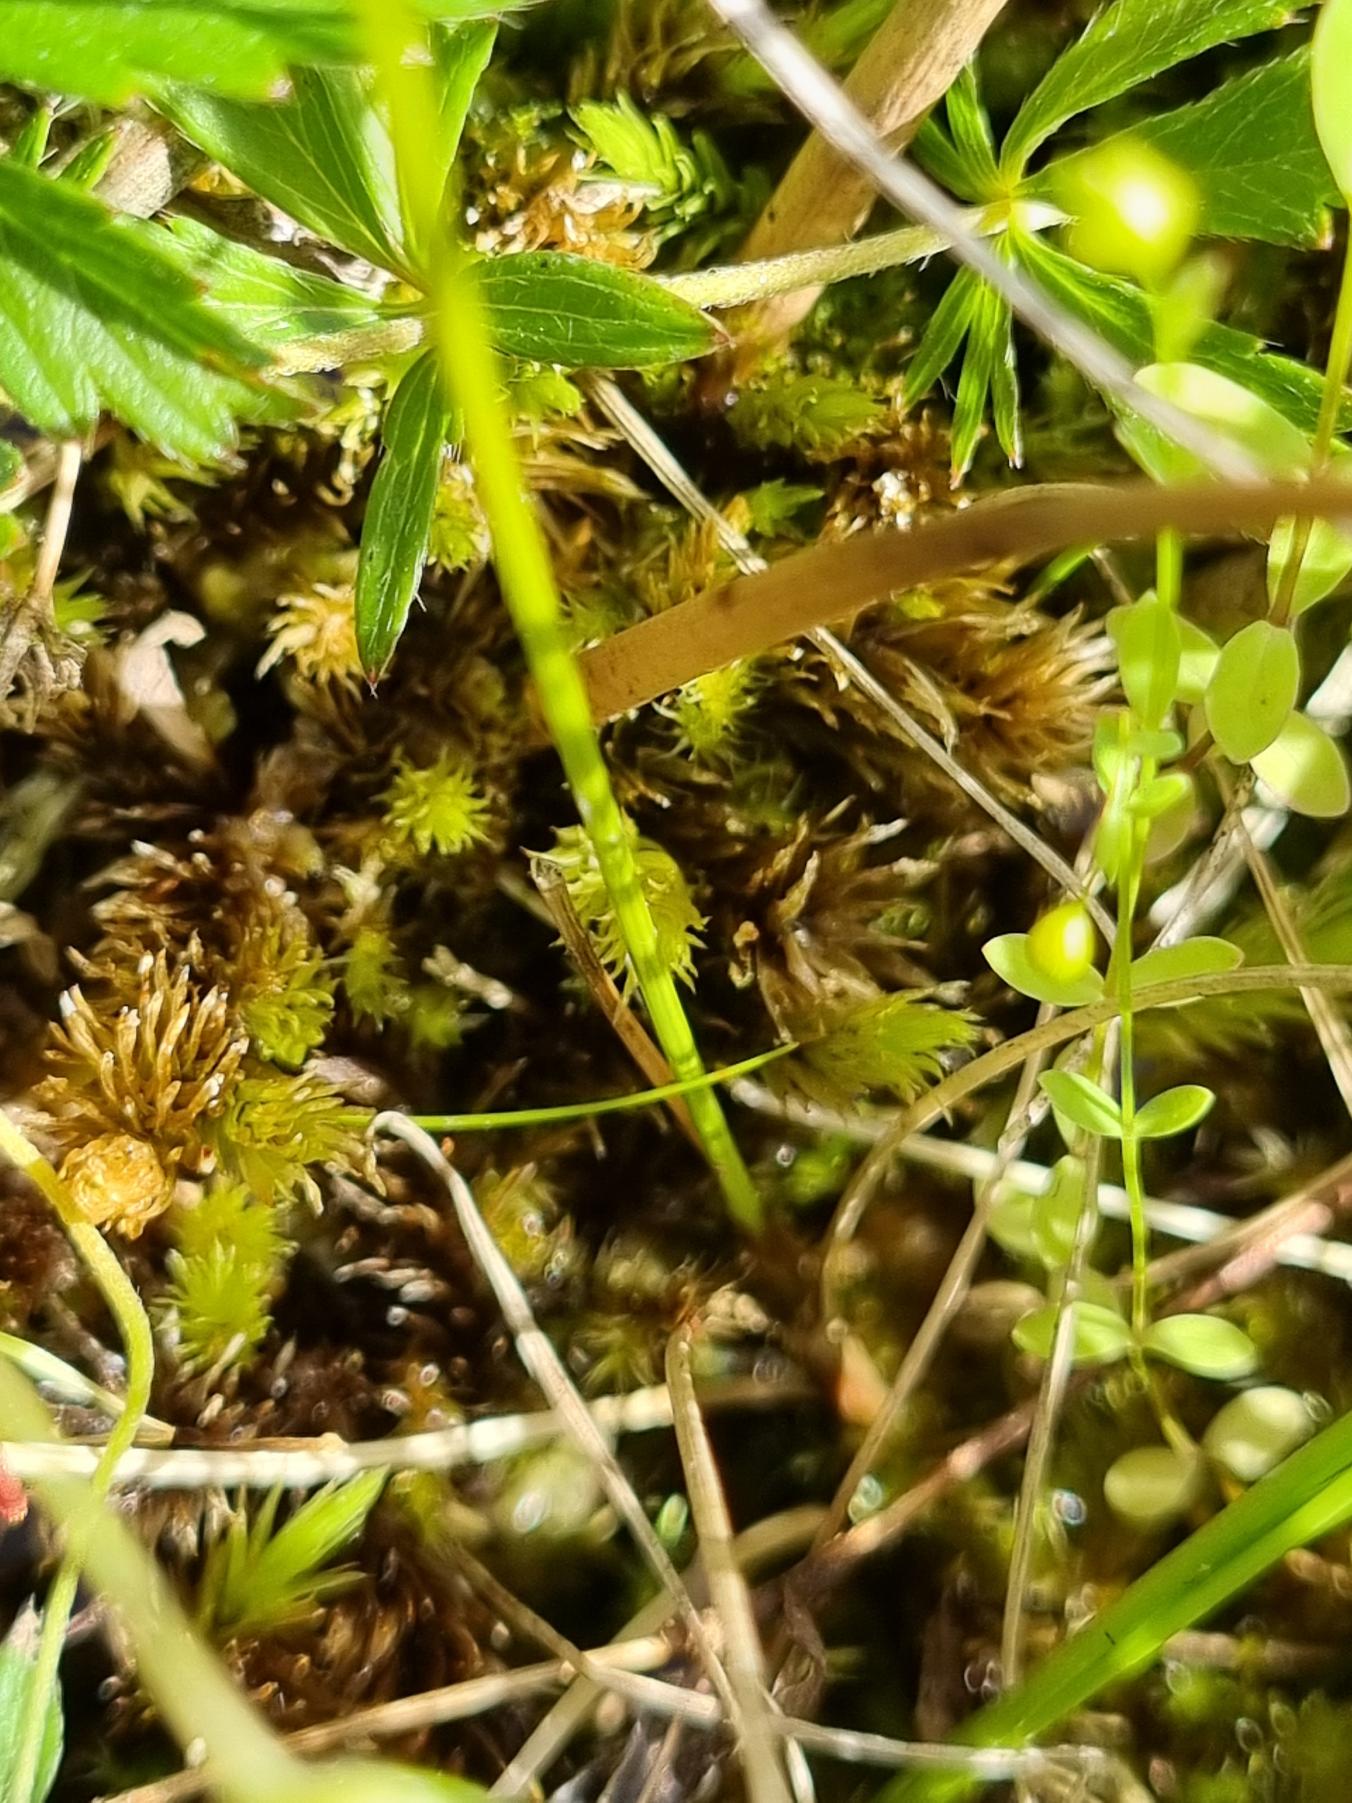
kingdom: Plantae
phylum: Tracheophyta
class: Liliopsida
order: Poales
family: Cyperaceae
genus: Carex
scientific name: Carex dioica
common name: Tvebo star
